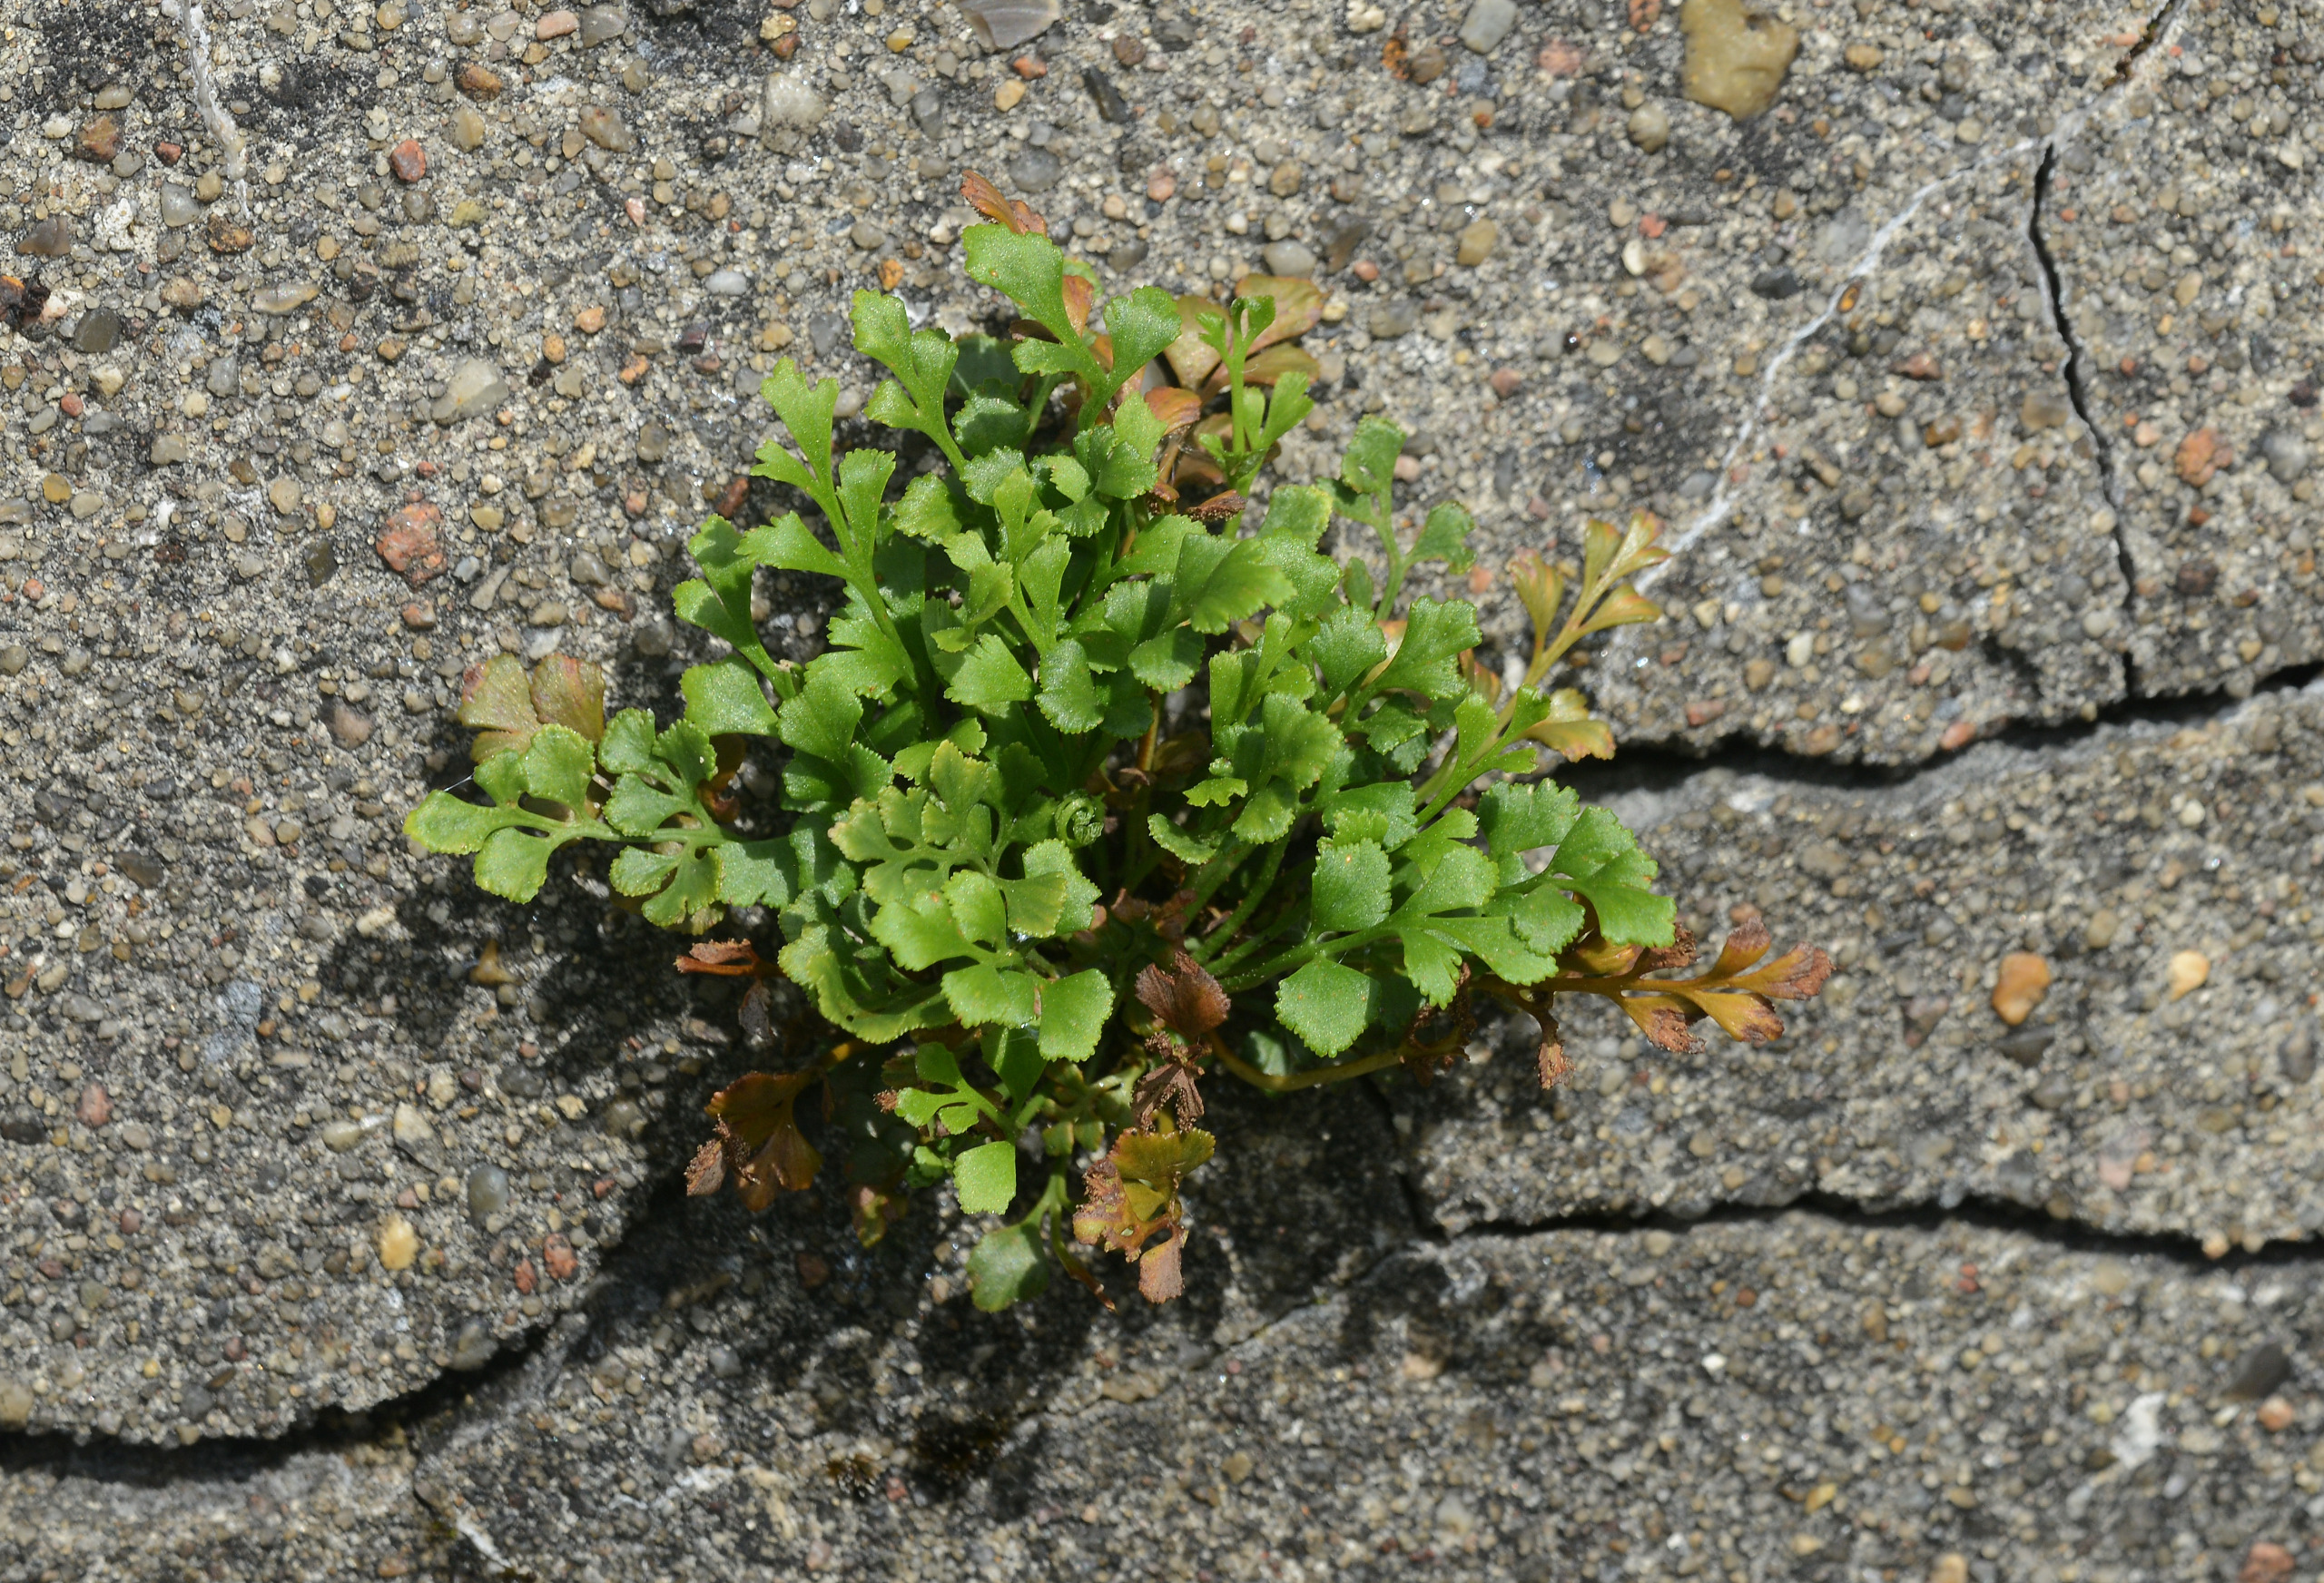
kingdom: Plantae
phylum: Tracheophyta
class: Polypodiopsida
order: Polypodiales
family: Aspleniaceae
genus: Asplenium
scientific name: Asplenium ruta-muraria
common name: Murrude
